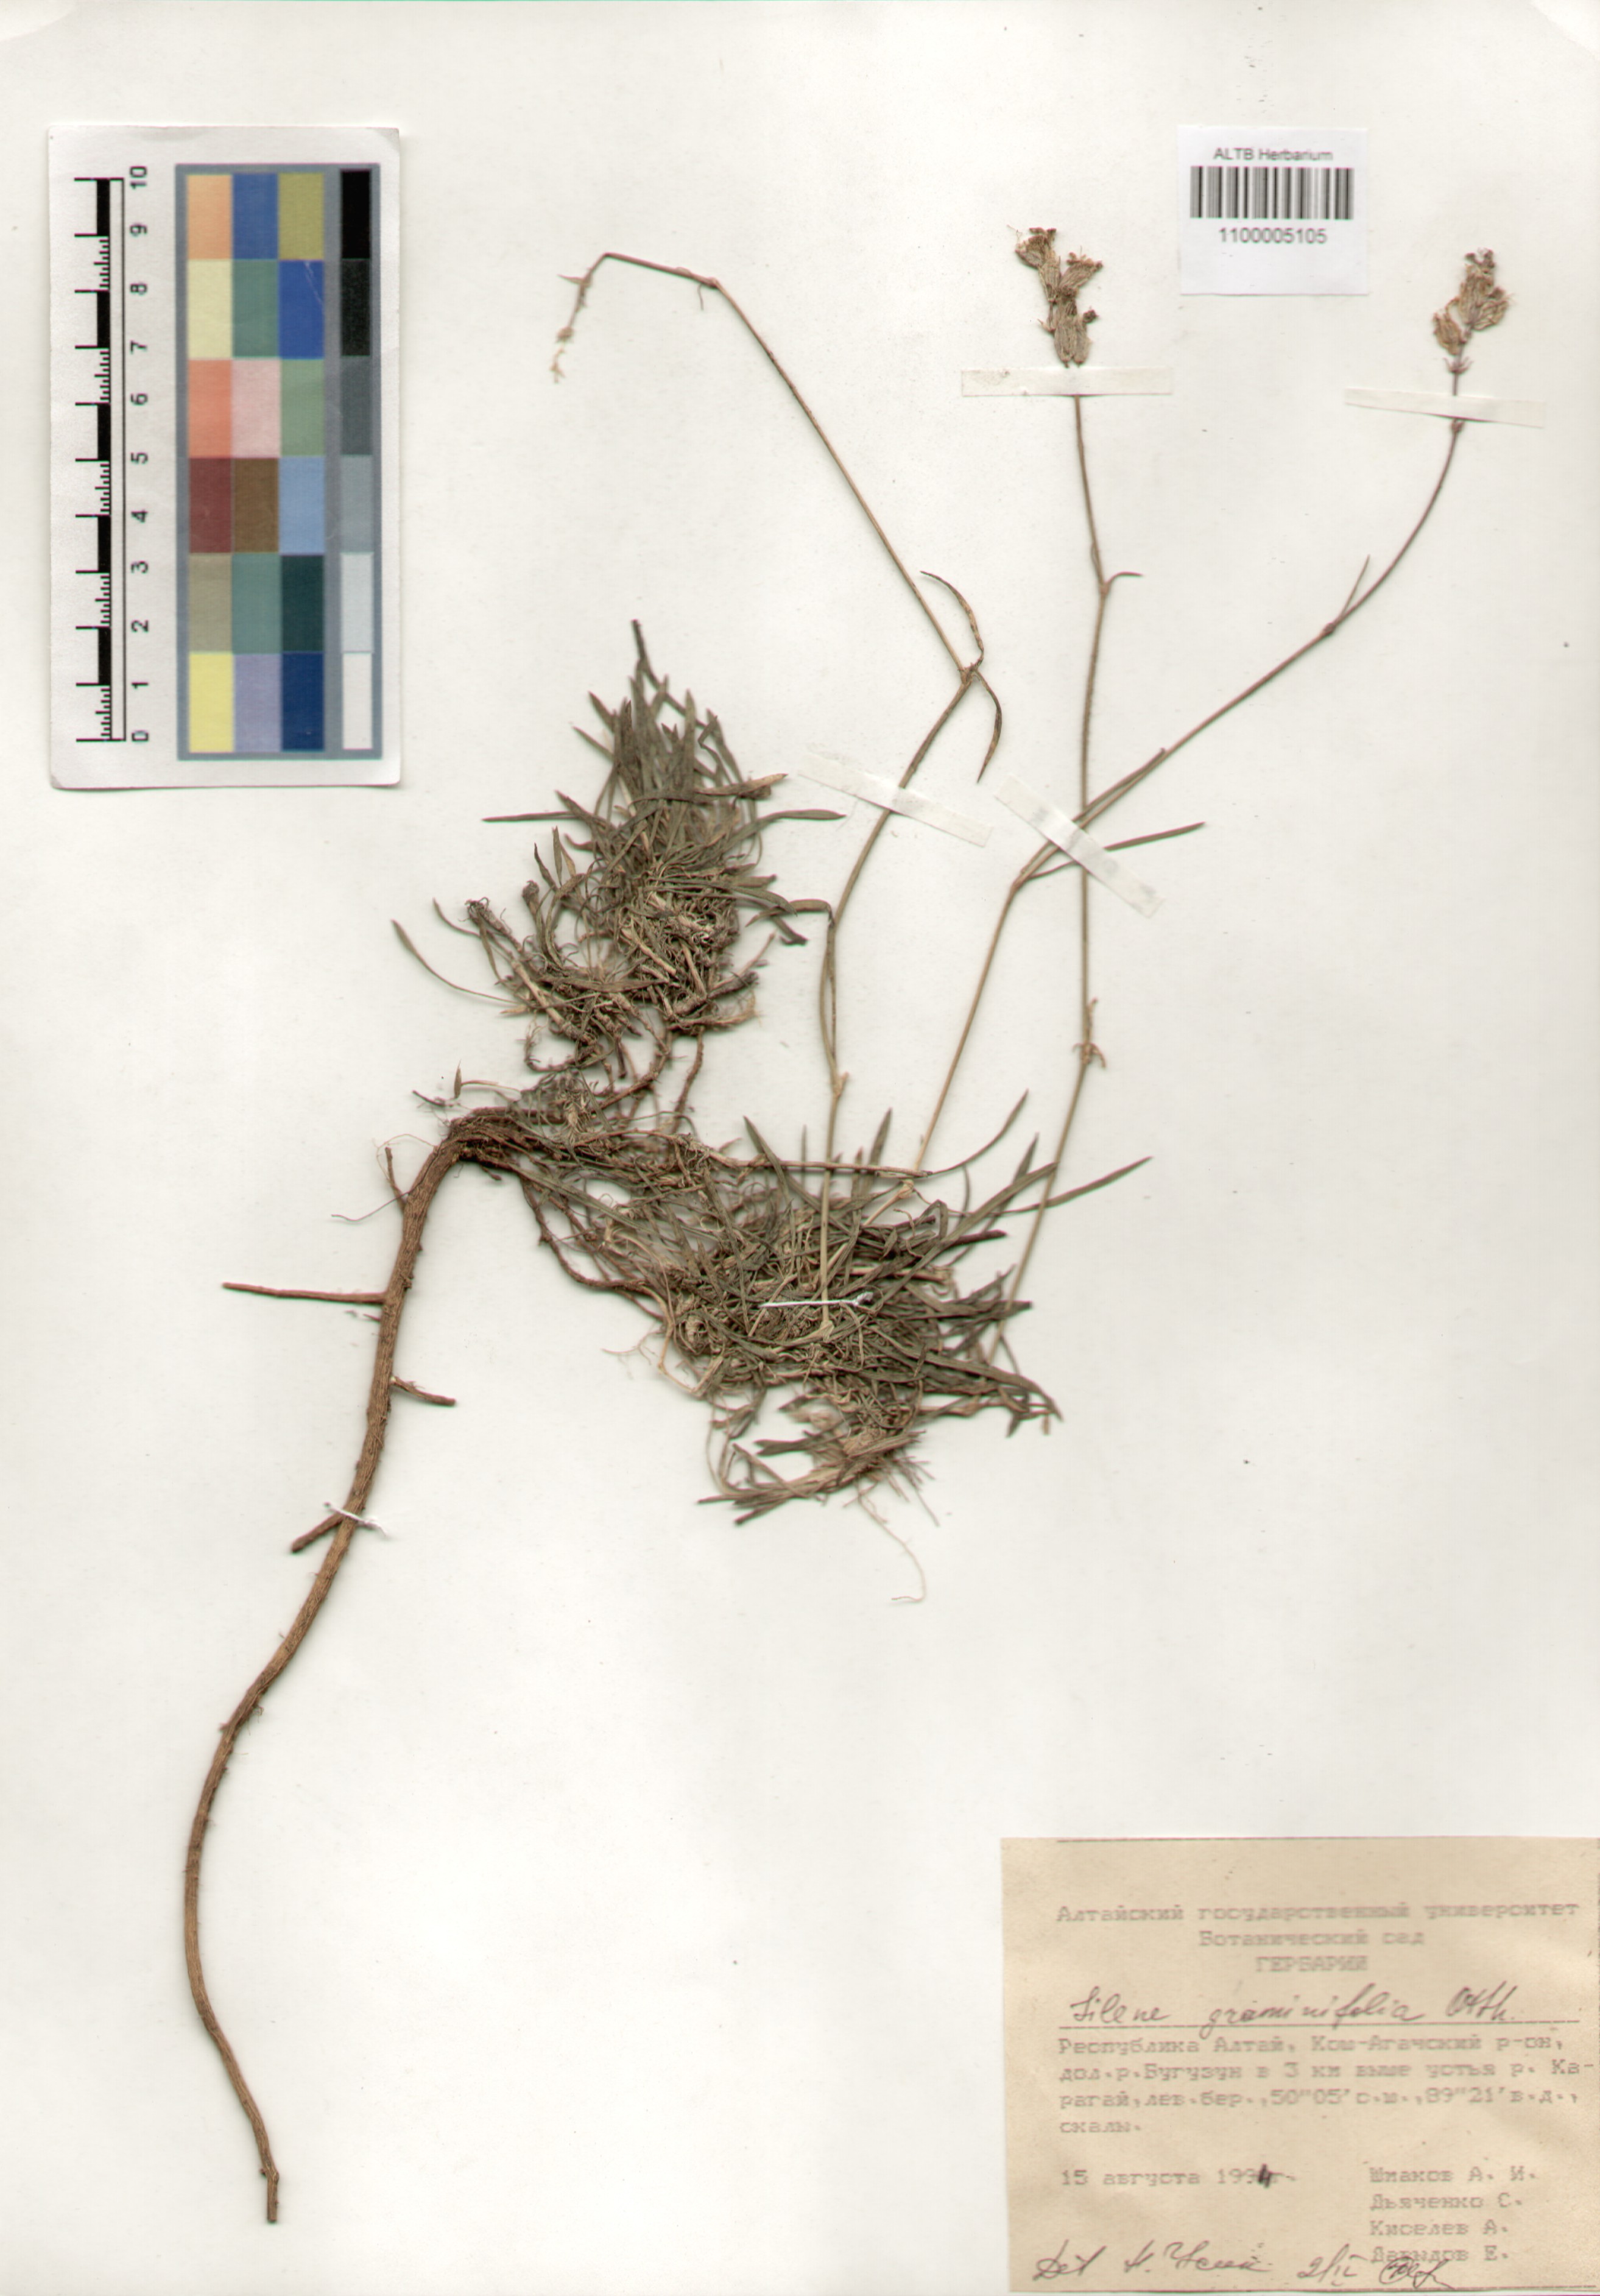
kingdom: Plantae
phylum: Tracheophyta
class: Magnoliopsida
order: Caryophyllales
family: Caryophyllaceae
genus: Silene
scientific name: Silene graminifolia
